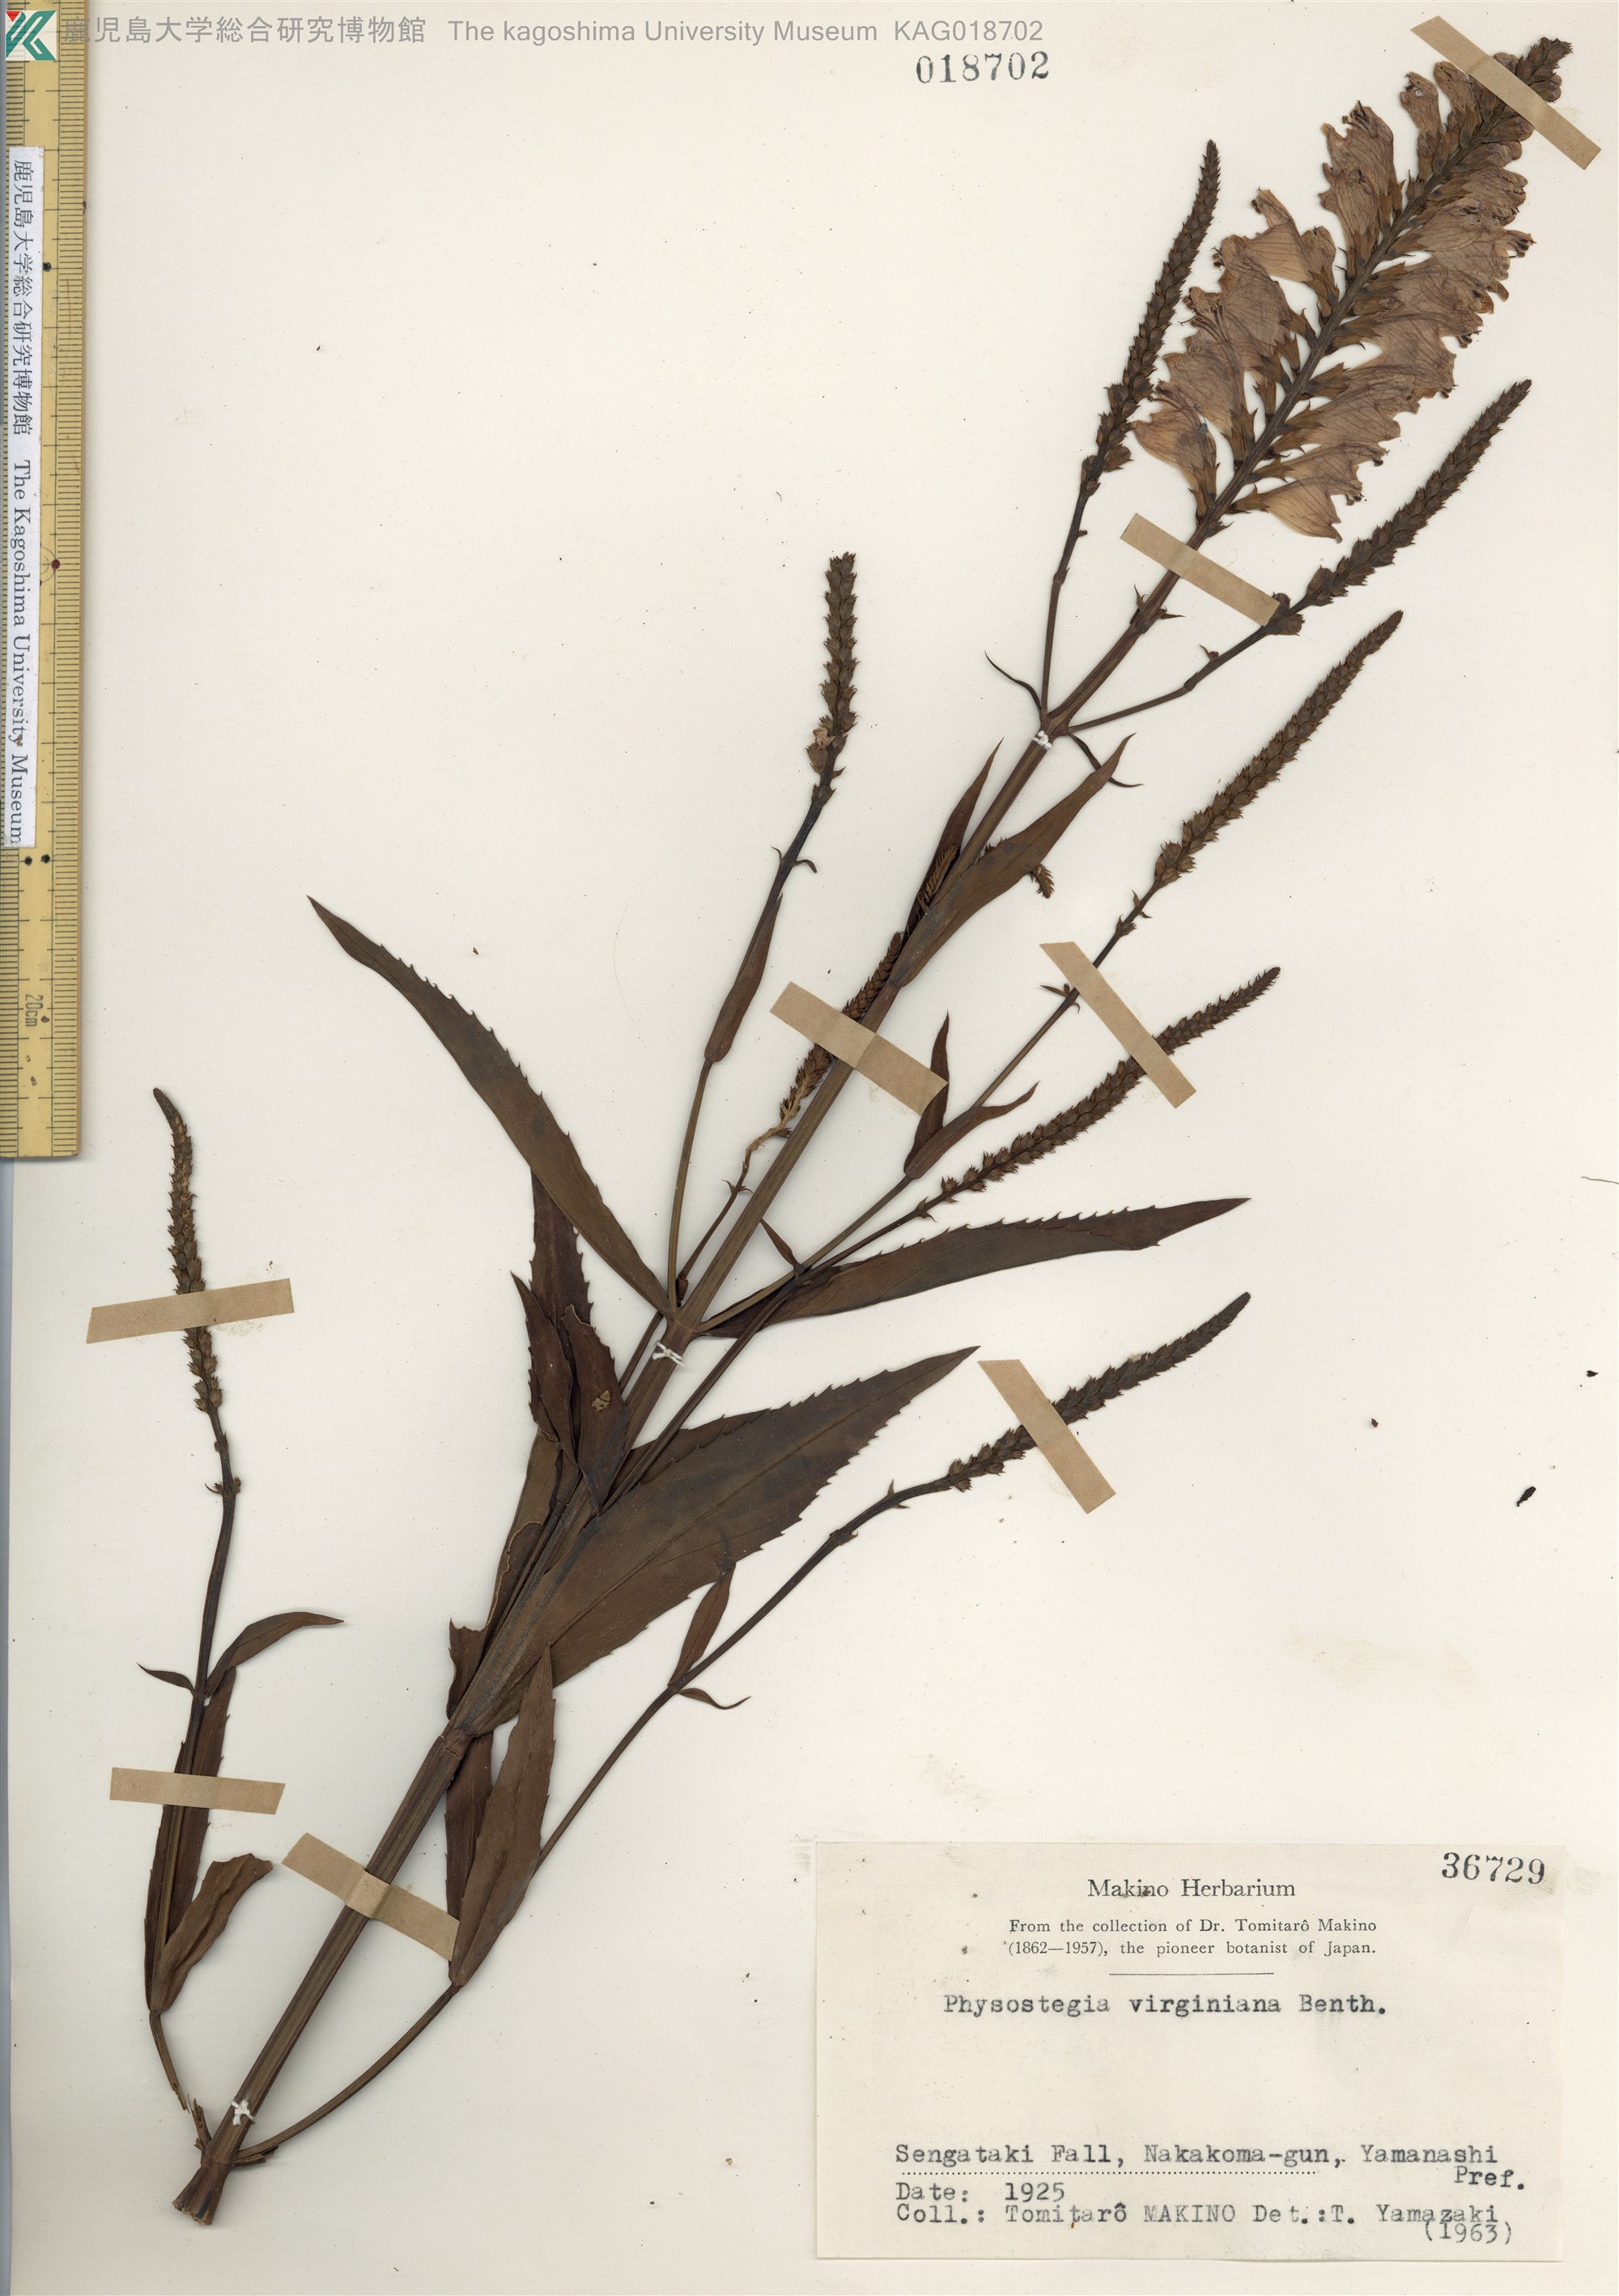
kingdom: Plantae
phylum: Tracheophyta
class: Magnoliopsida
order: Lamiales
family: Lamiaceae
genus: Physostegia
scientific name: Physostegia virginiana
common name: Obedient-plant
